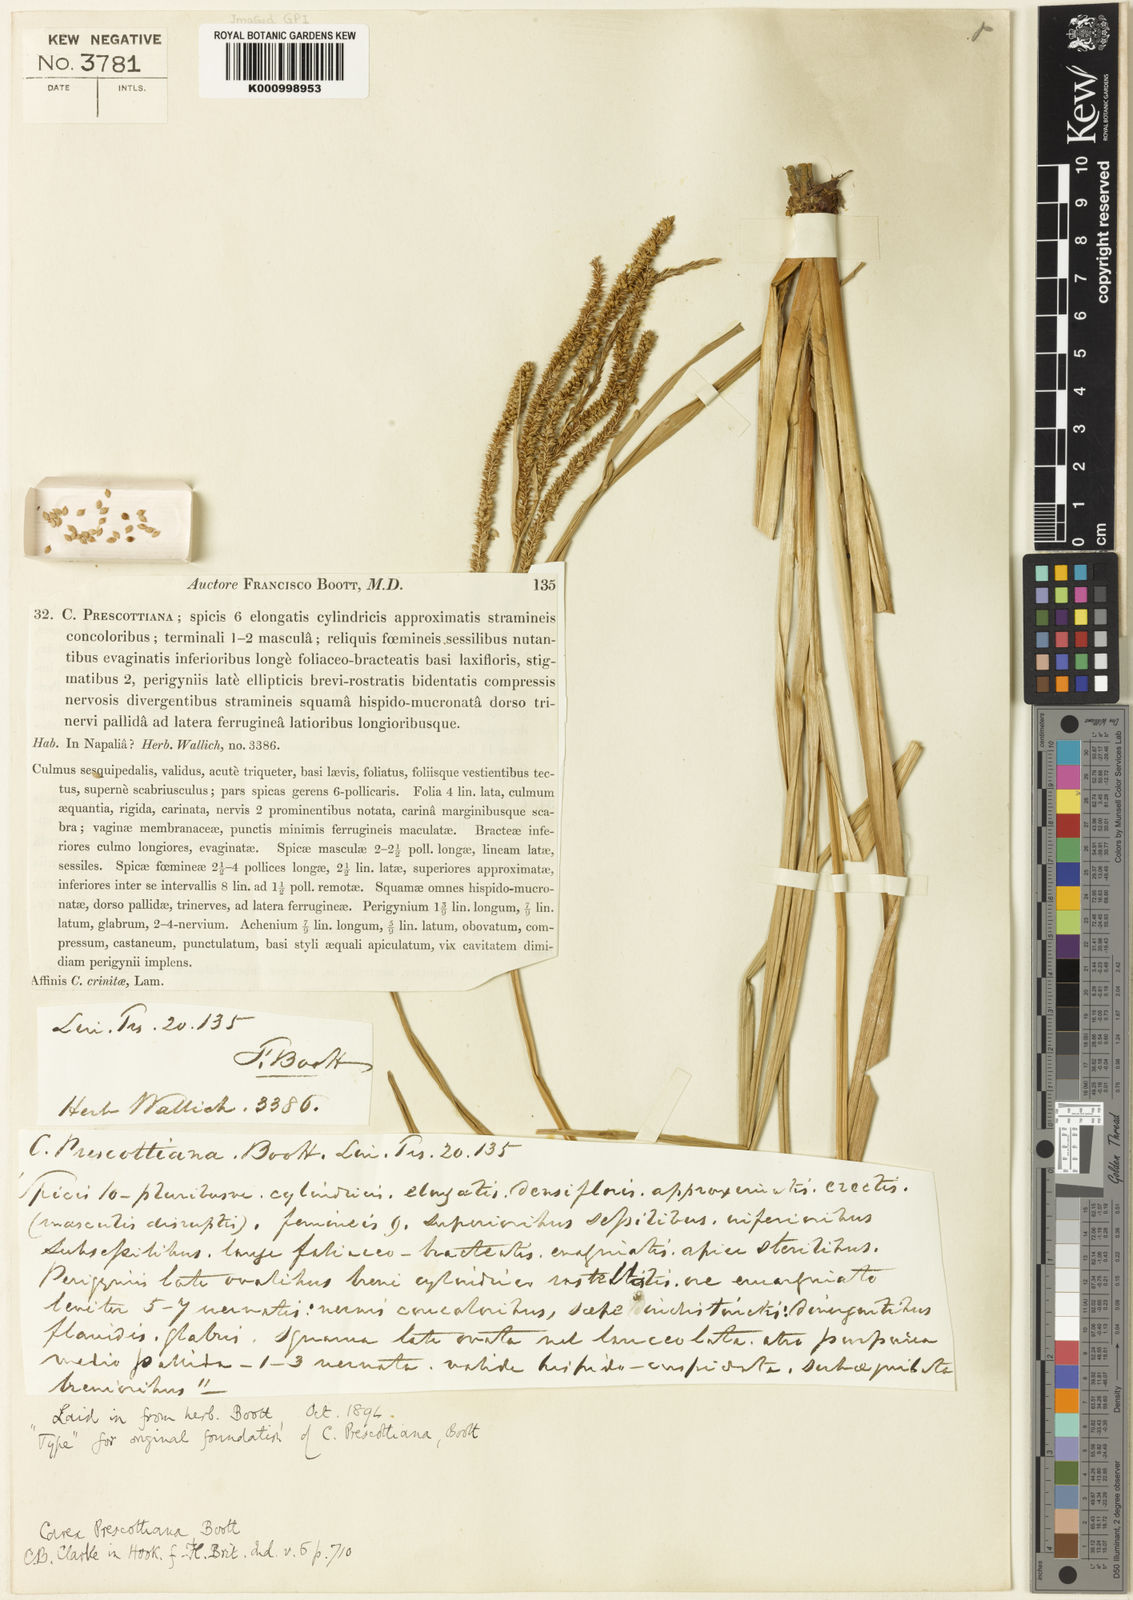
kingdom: Plantae
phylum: Tracheophyta
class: Liliopsida
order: Poales
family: Cyperaceae
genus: Carex
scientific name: Carex prescottiana
